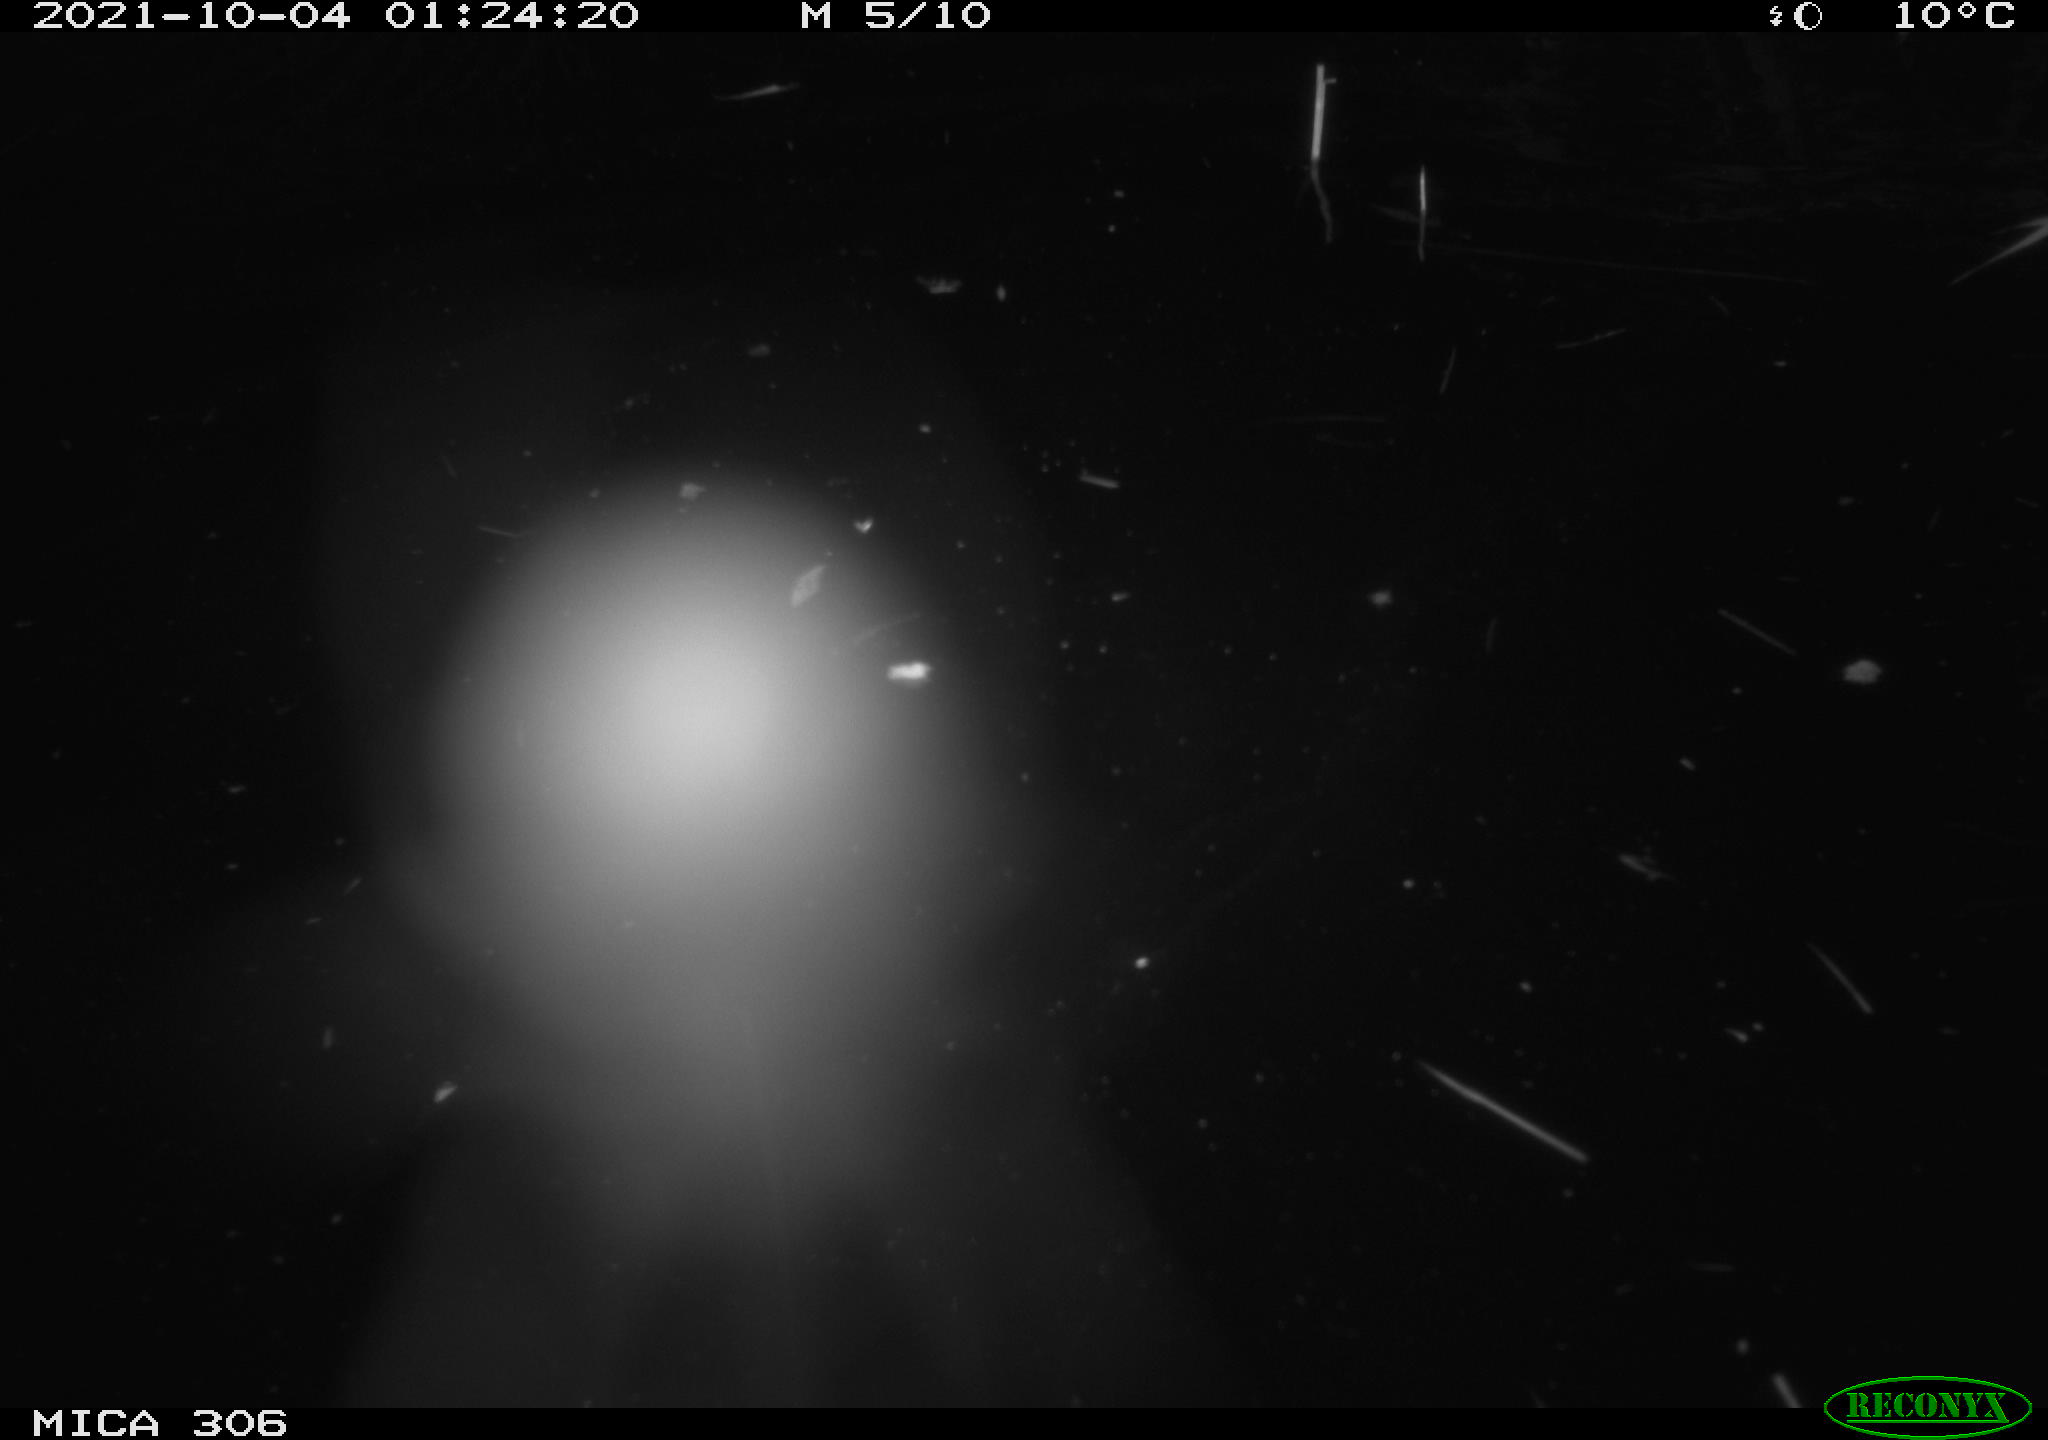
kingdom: Animalia
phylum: Chordata
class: Mammalia
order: Rodentia
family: Cricetidae
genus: Ondatra
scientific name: Ondatra zibethicus
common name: Muskrat
